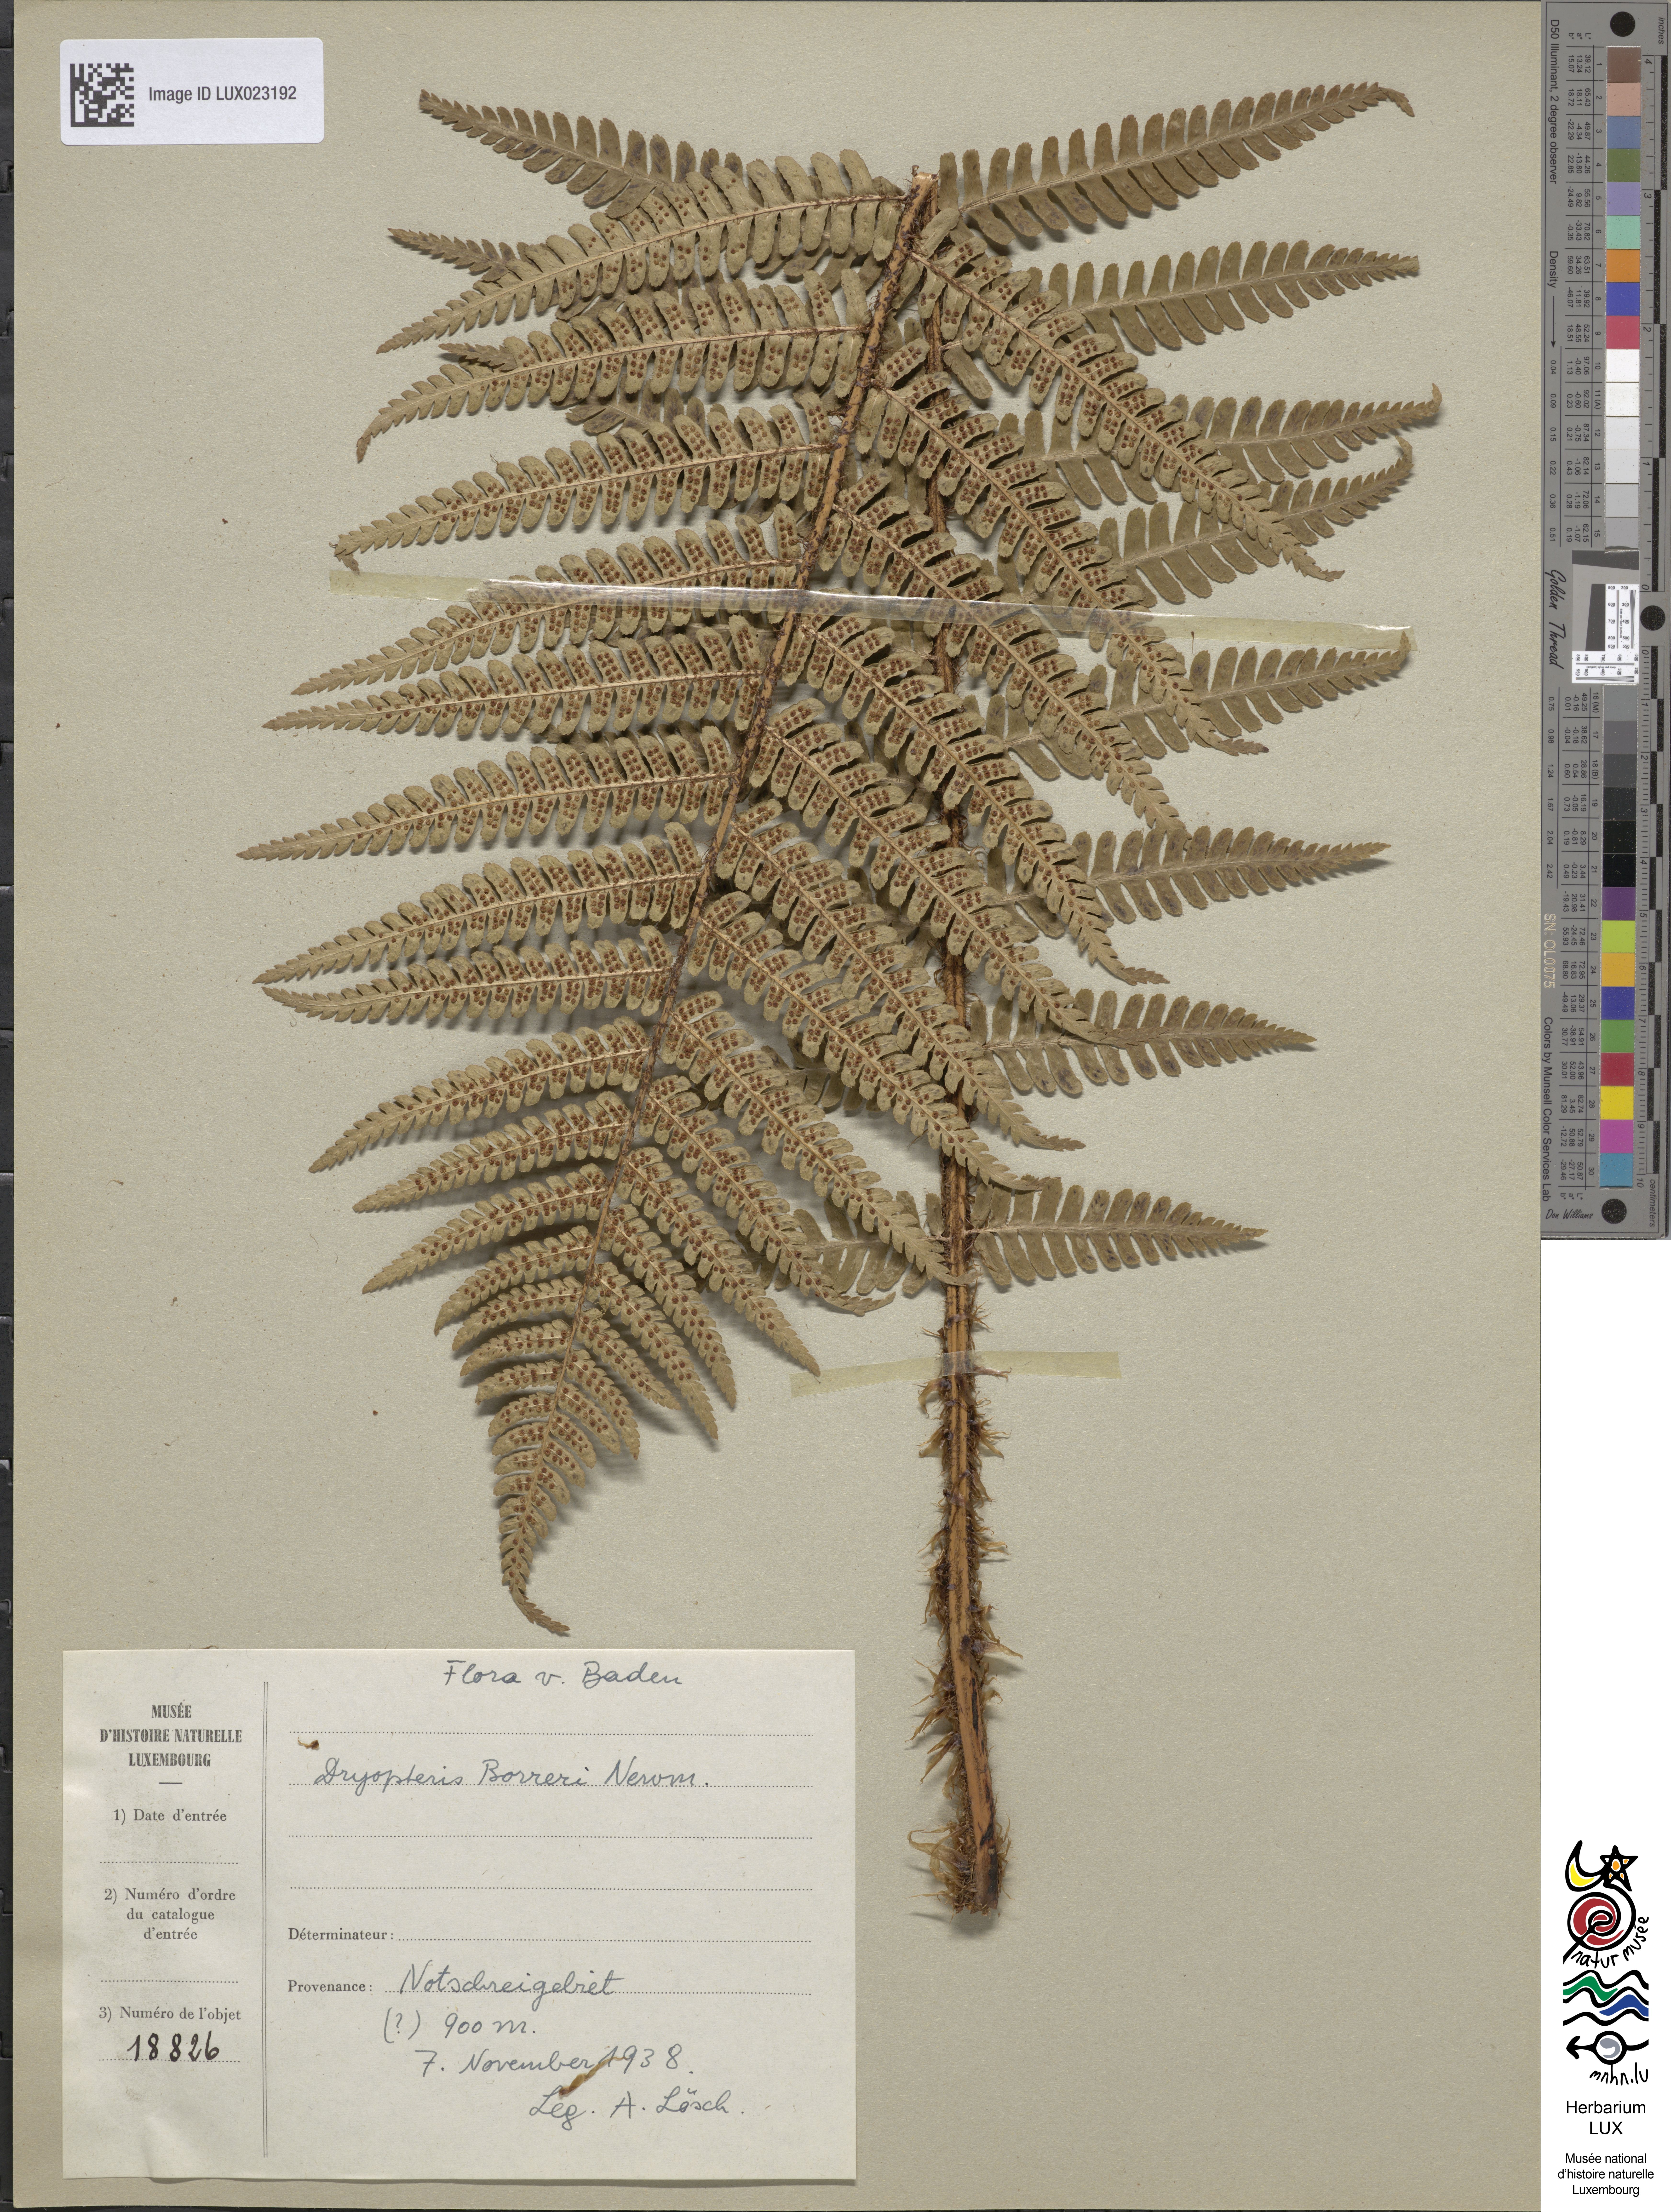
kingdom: Plantae
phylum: Tracheophyta
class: Polypodiopsida
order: Polypodiales
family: Dryopteridaceae
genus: Dryopteris
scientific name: Dryopteris
